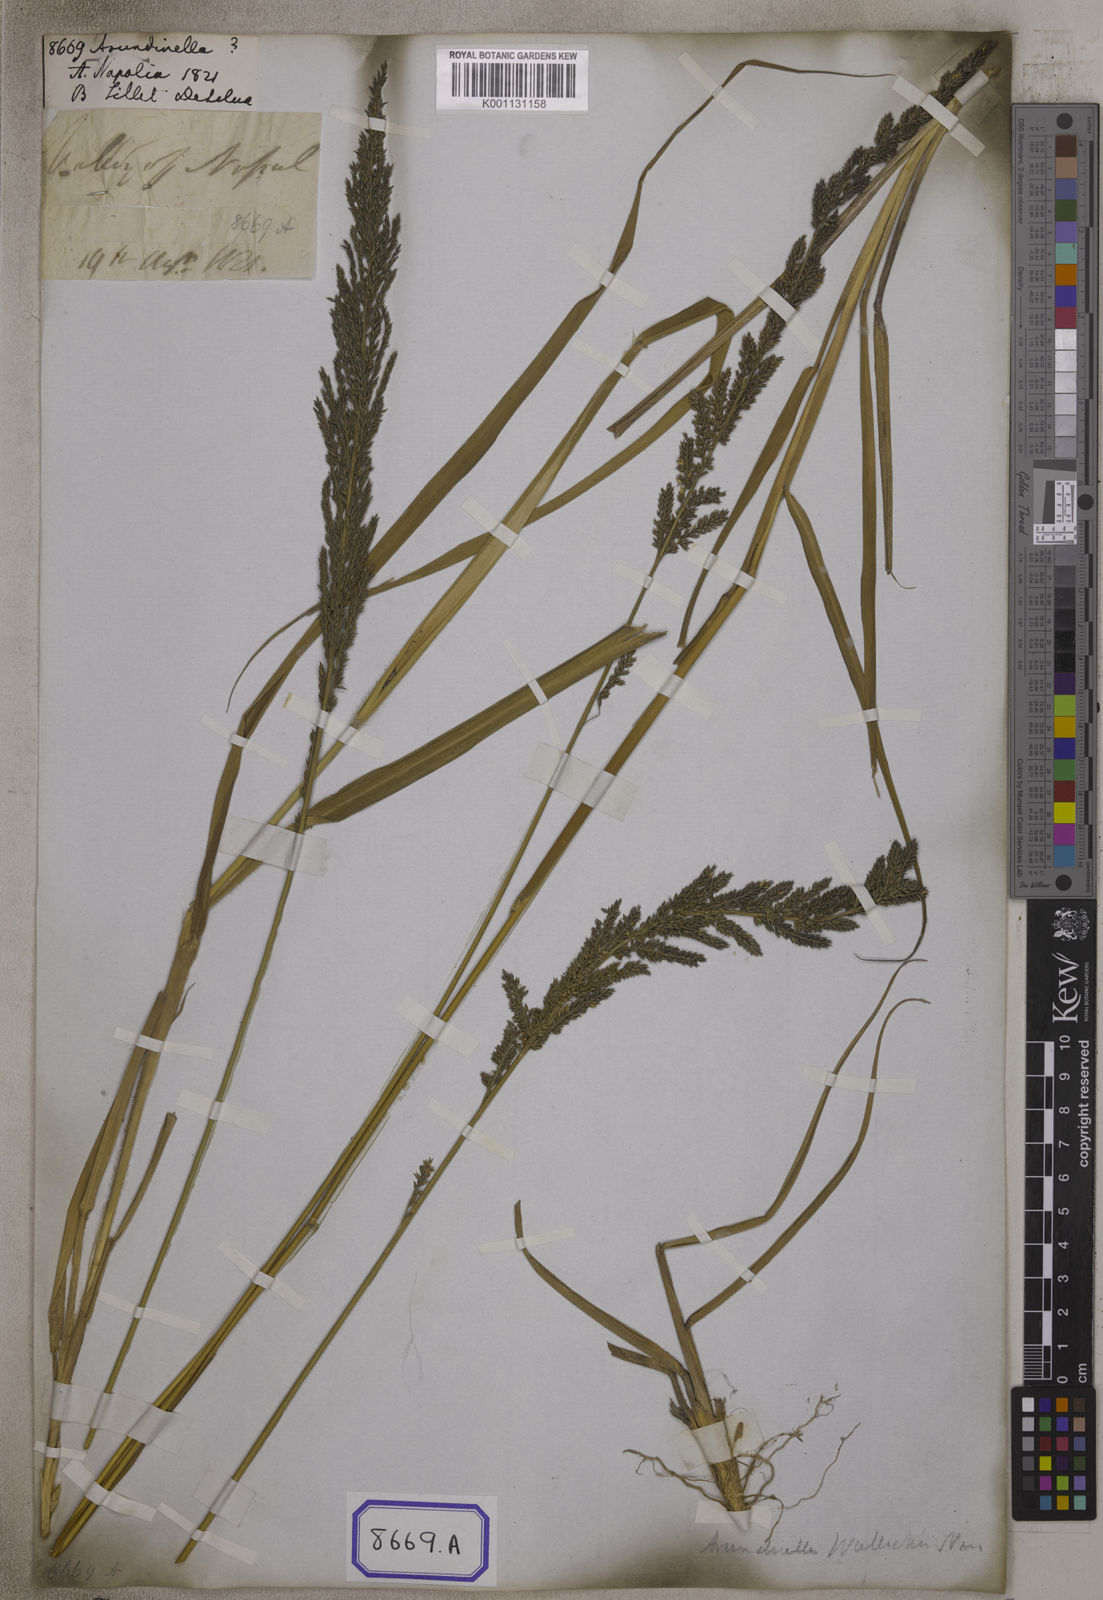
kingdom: Plantae
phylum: Tracheophyta
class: Liliopsida
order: Poales
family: Poaceae
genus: Arundinella
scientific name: Arundinella
